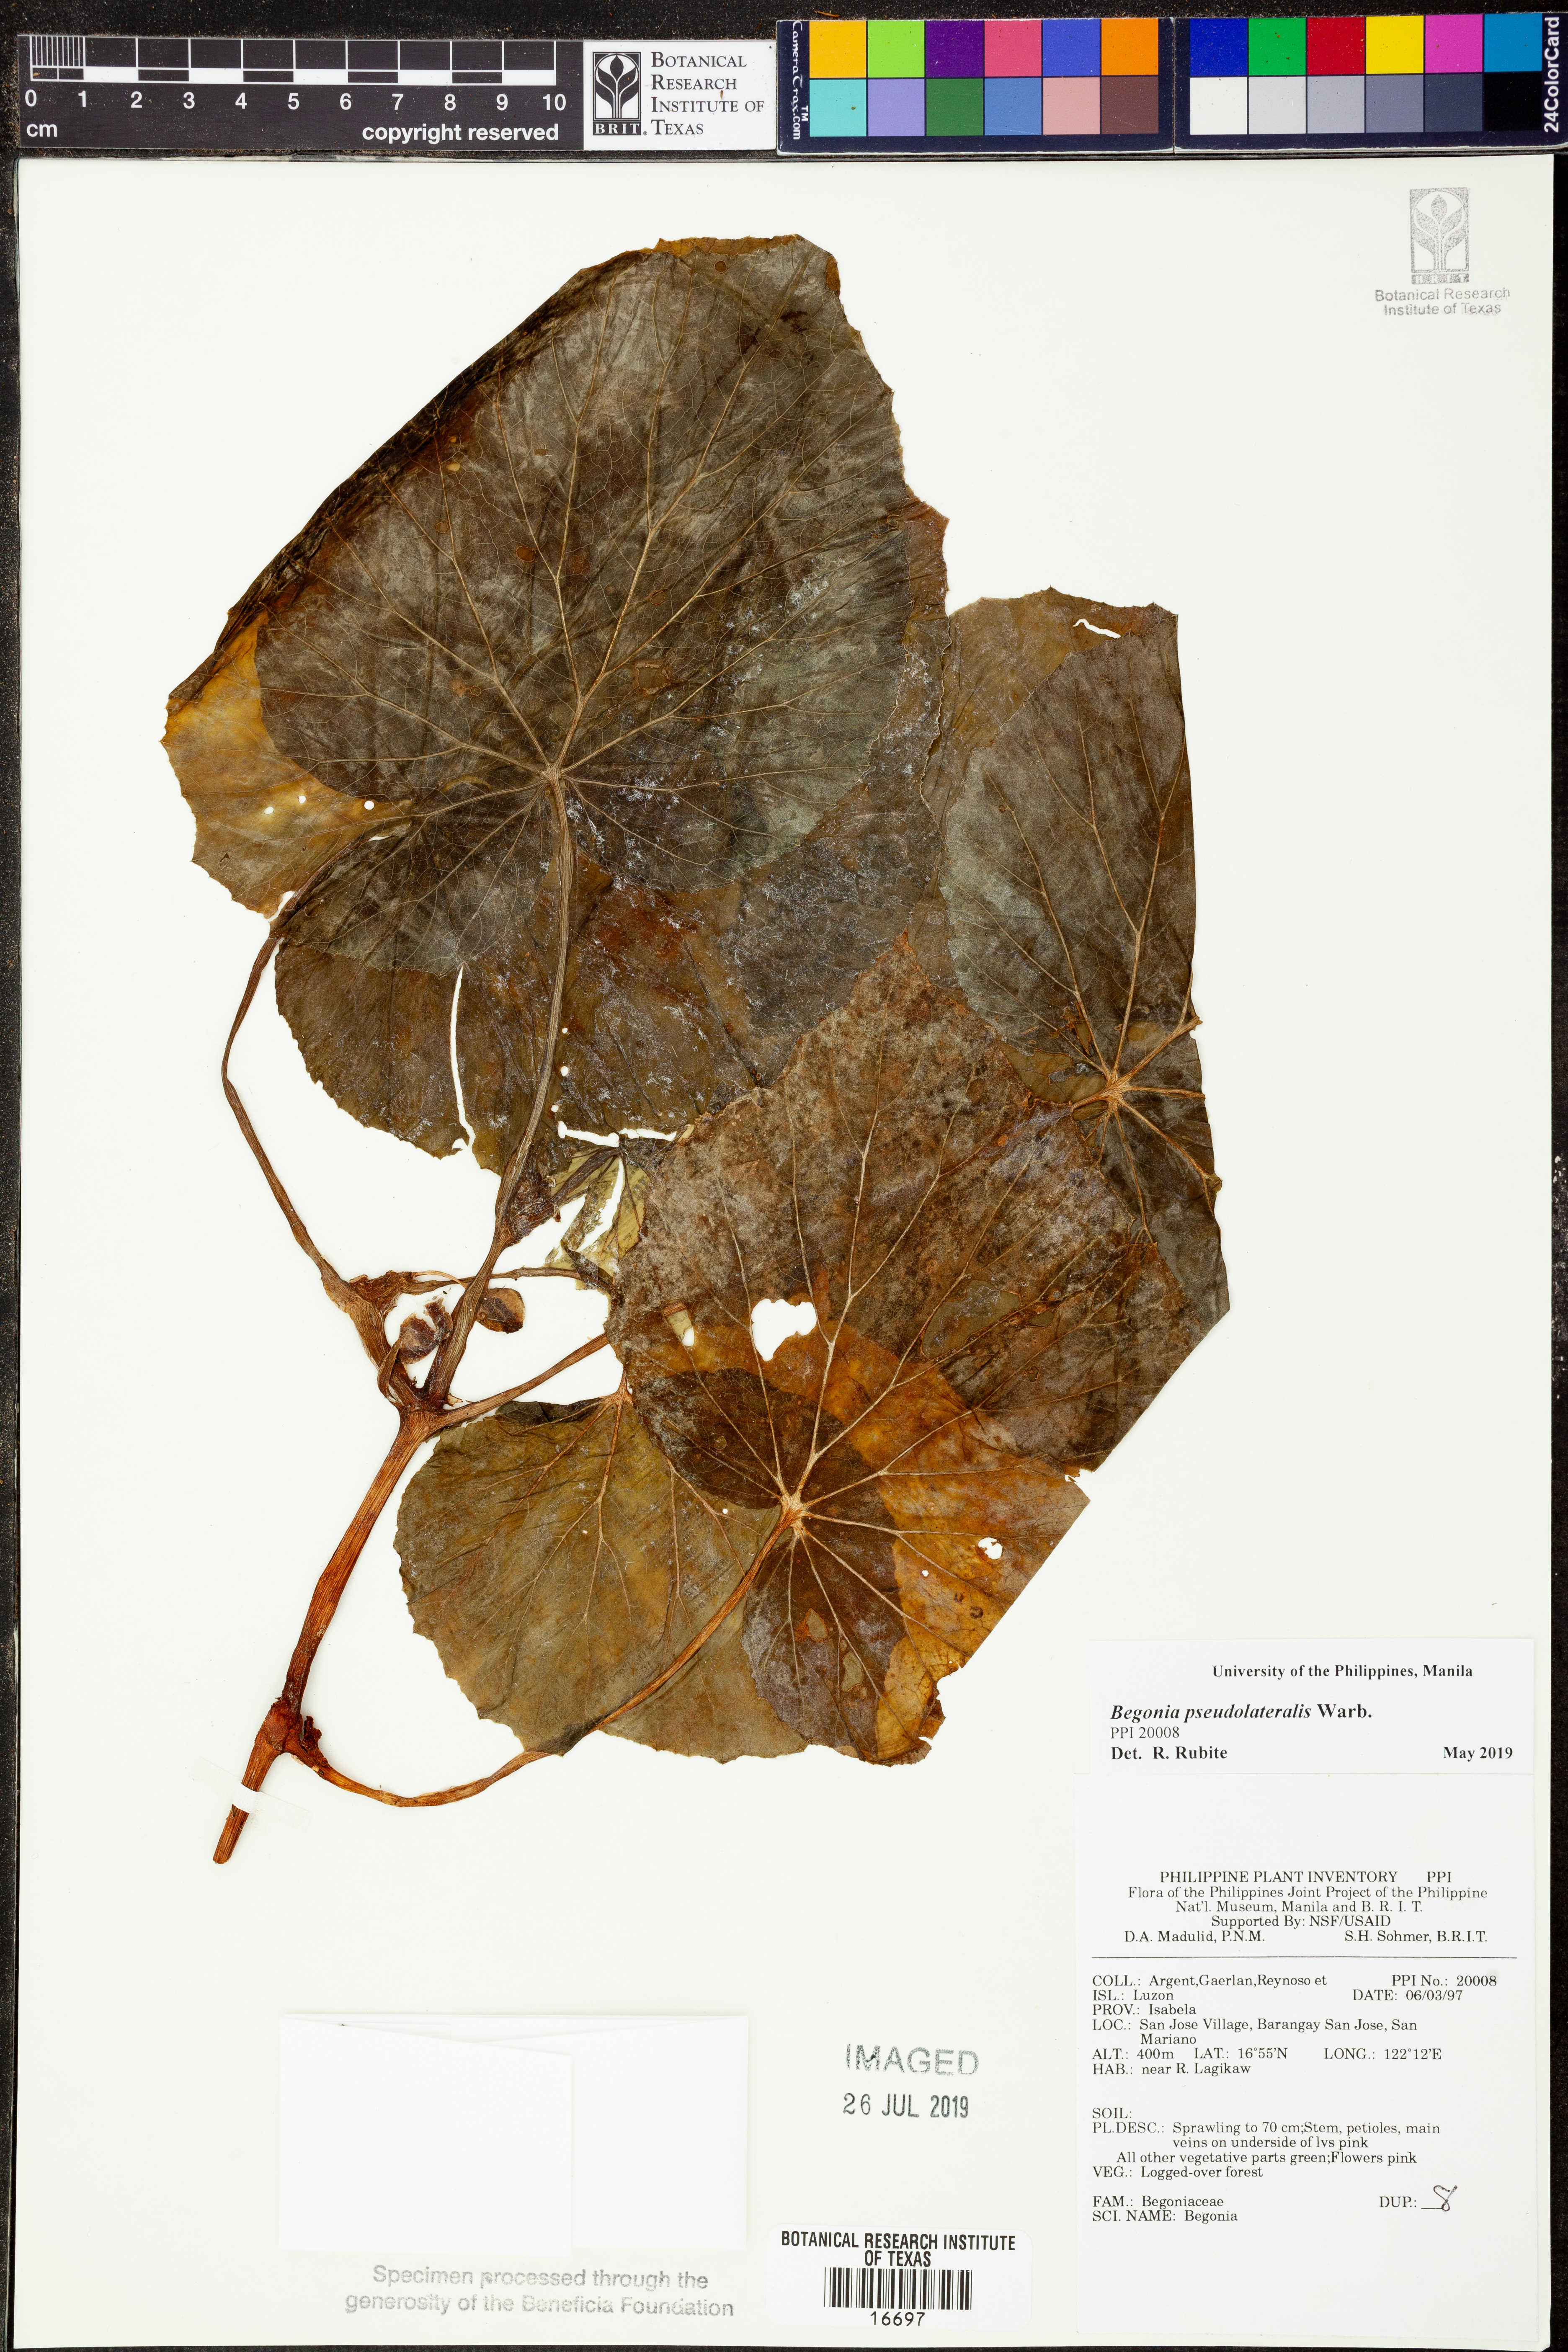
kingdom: Plantae
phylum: Tracheophyta
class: Magnoliopsida
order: Cucurbitales
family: Begoniaceae
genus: Begonia
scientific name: Begonia pseudolateralis
